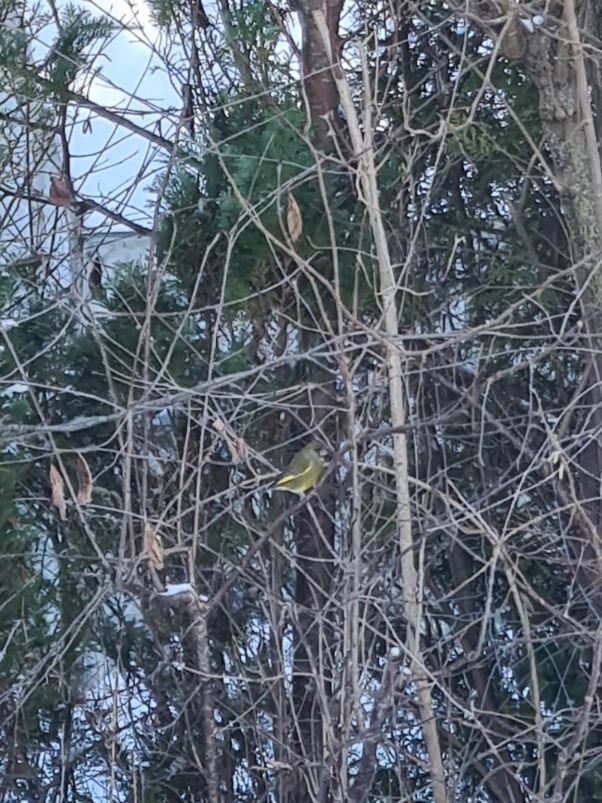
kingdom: Plantae
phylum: Tracheophyta
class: Liliopsida
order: Poales
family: Poaceae
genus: Chloris
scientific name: Chloris chloris
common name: Grønirisk
